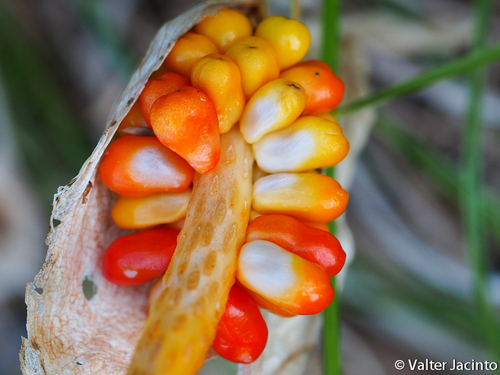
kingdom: Plantae
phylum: Tracheophyta
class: Liliopsida
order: Alismatales
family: Araceae
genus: Arum
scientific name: Arum italicum
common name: Italian lords-and-ladies
